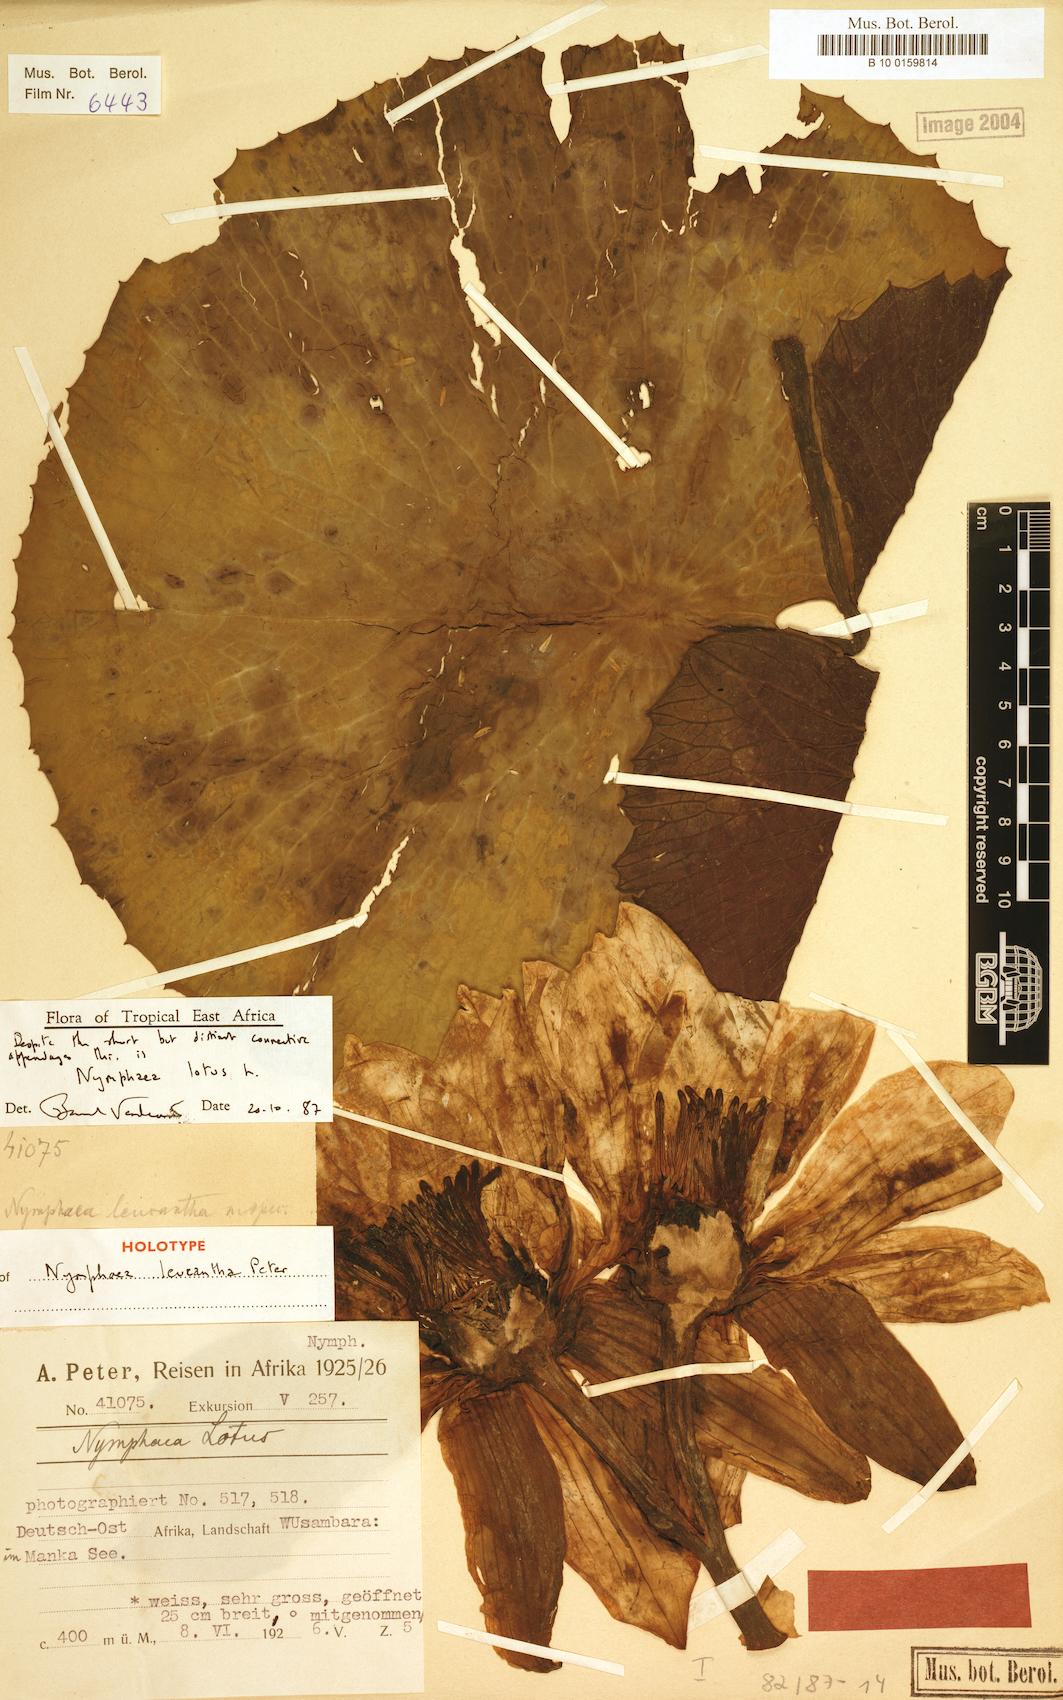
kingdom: Plantae
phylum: Tracheophyta
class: Magnoliopsida
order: Nymphaeales
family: Nymphaeaceae
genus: Nymphaea
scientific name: Nymphaea lotus
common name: White egyptian lotus
